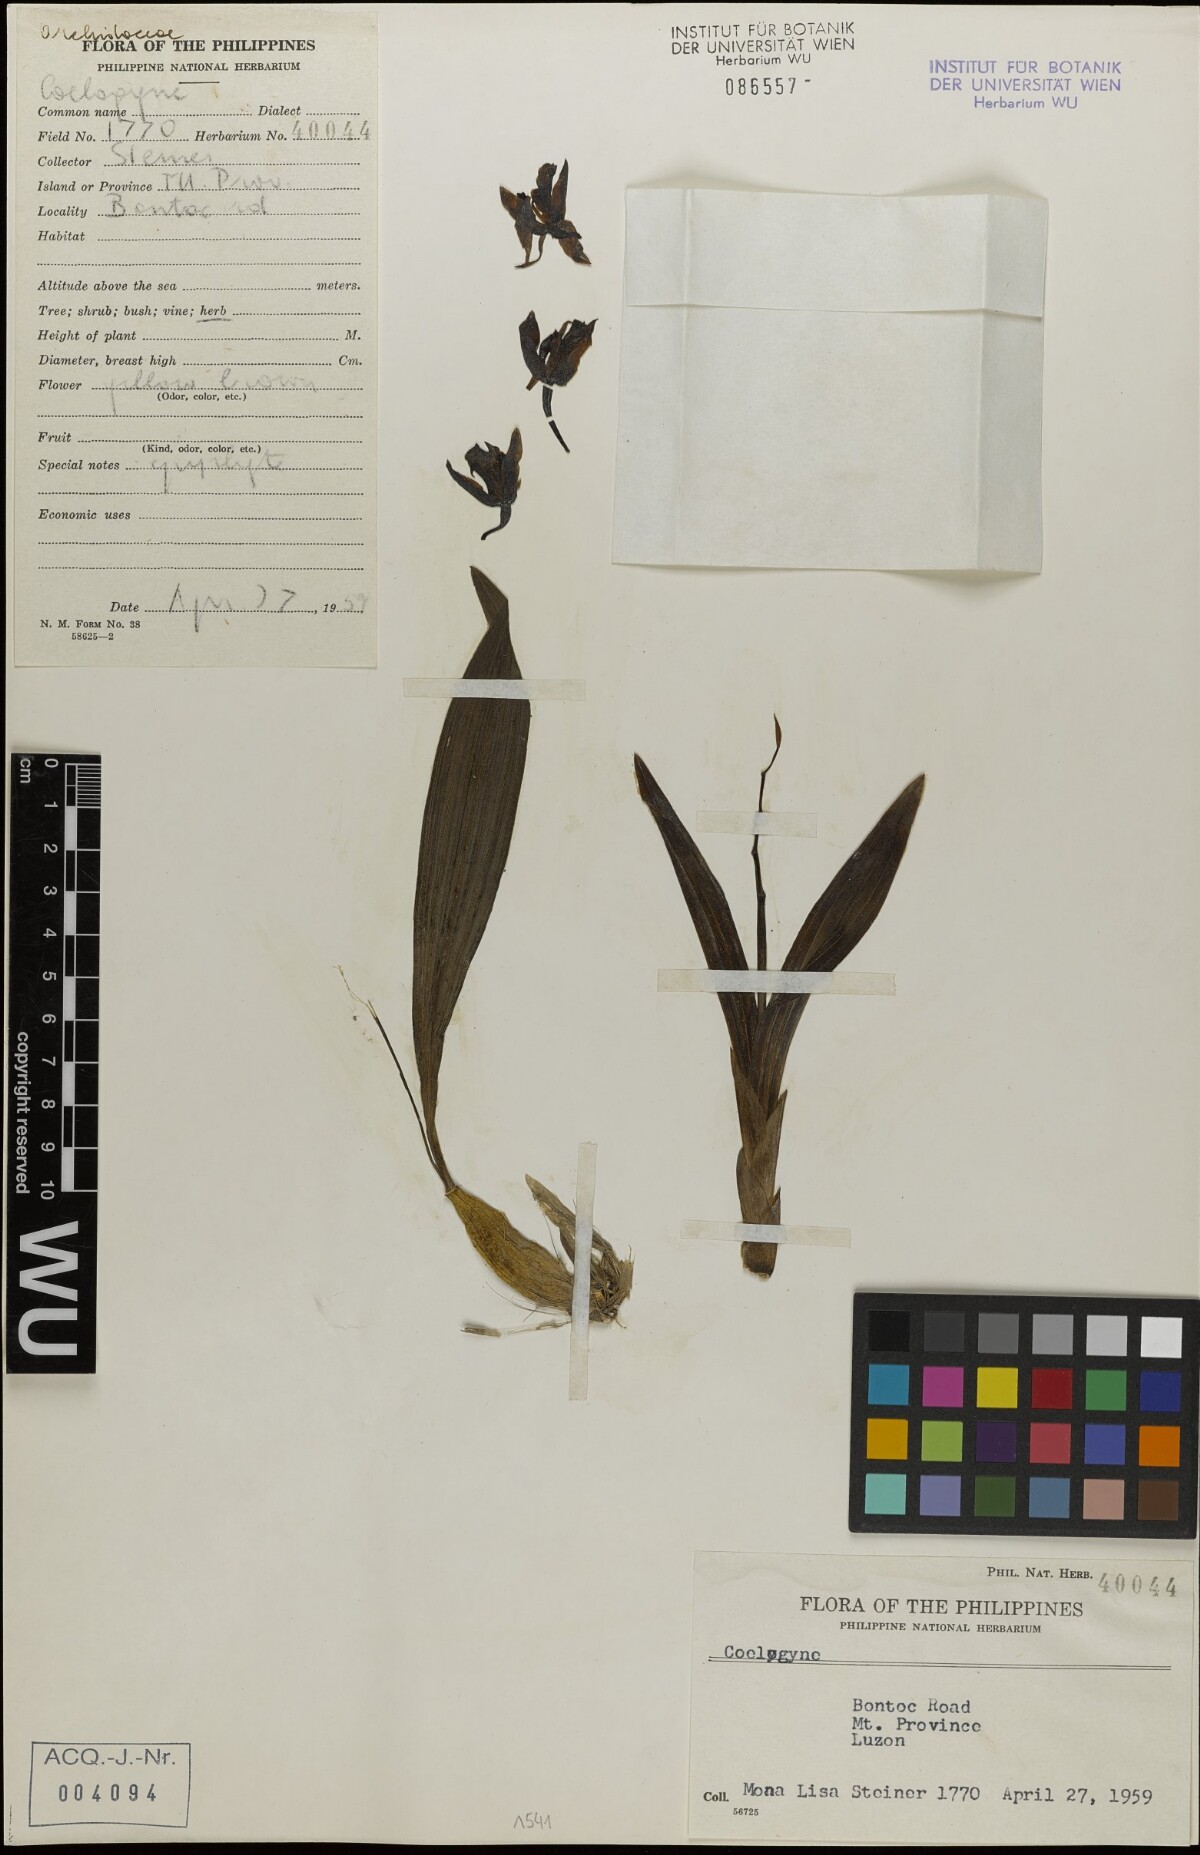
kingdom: Plantae
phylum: Tracheophyta
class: Liliopsida
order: Asparagales
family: Orchidaceae
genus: Coelogyne
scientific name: Coelogyne
